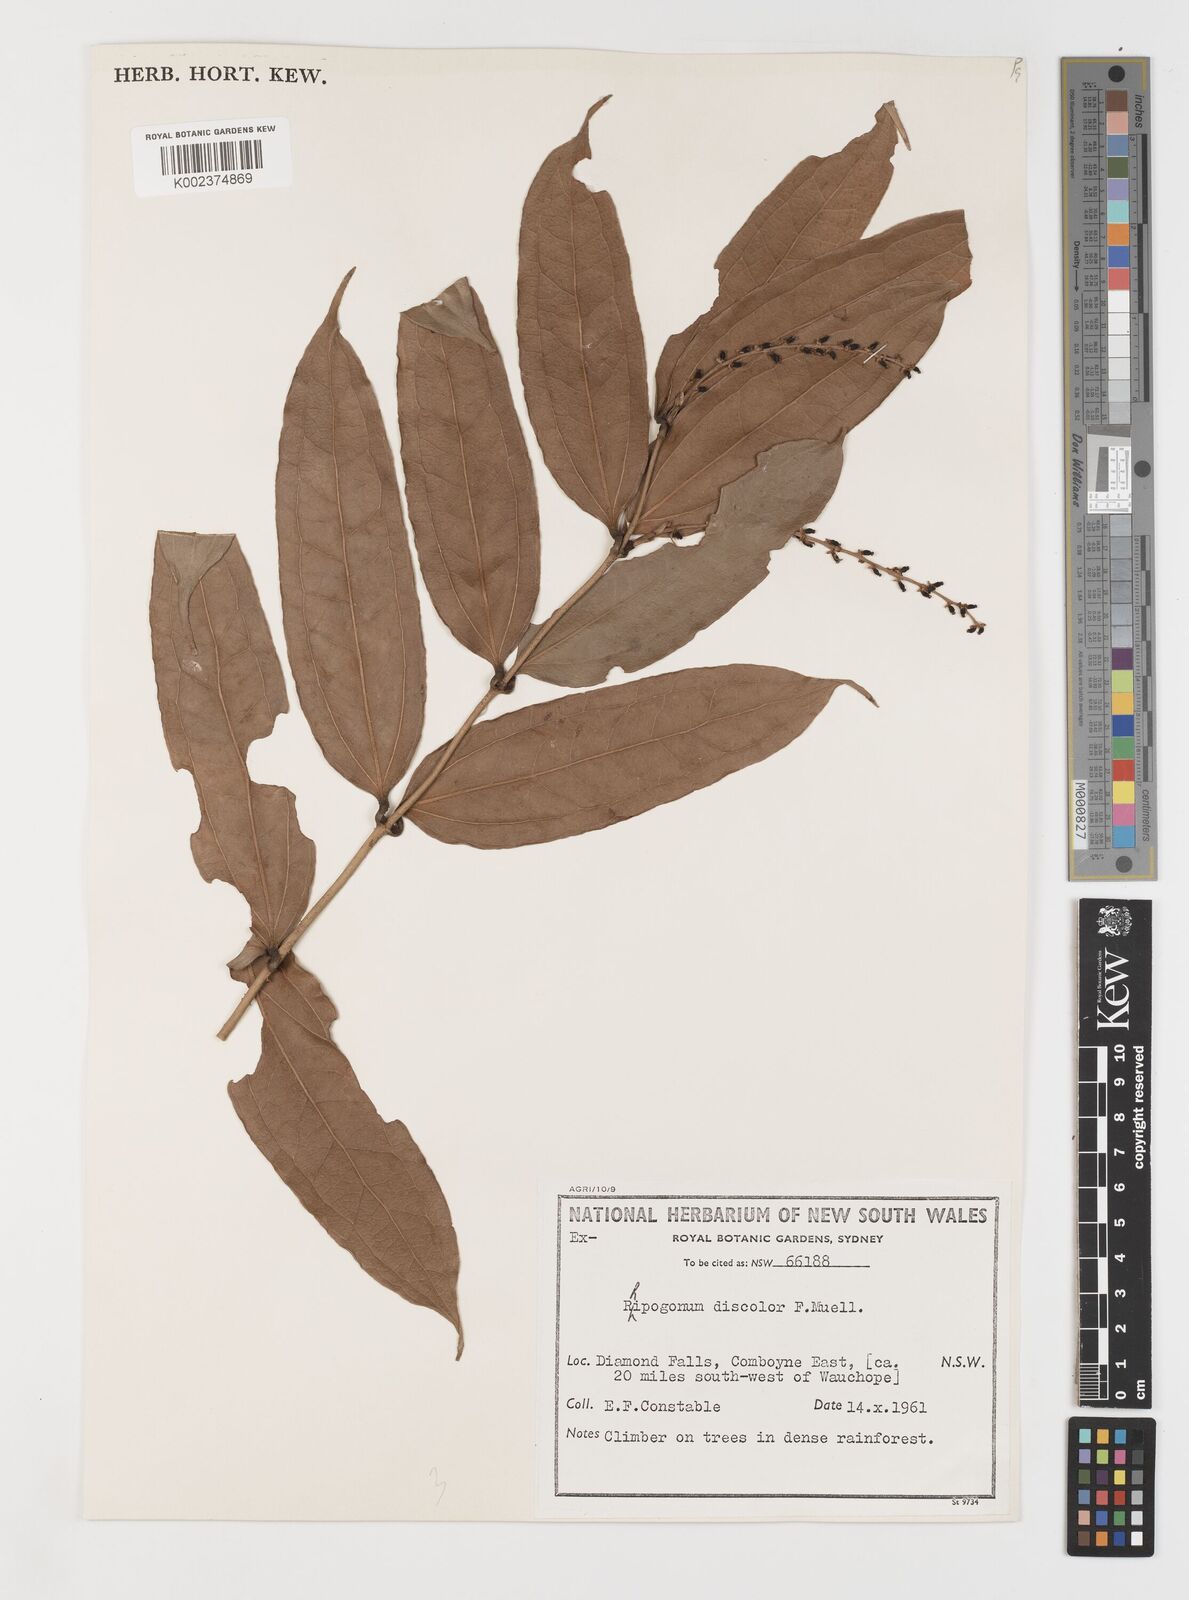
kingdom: Plantae
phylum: Tracheophyta
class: Liliopsida
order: Liliales
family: Ripogonaceae
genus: Ripogonum
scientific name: Ripogonum discolor
